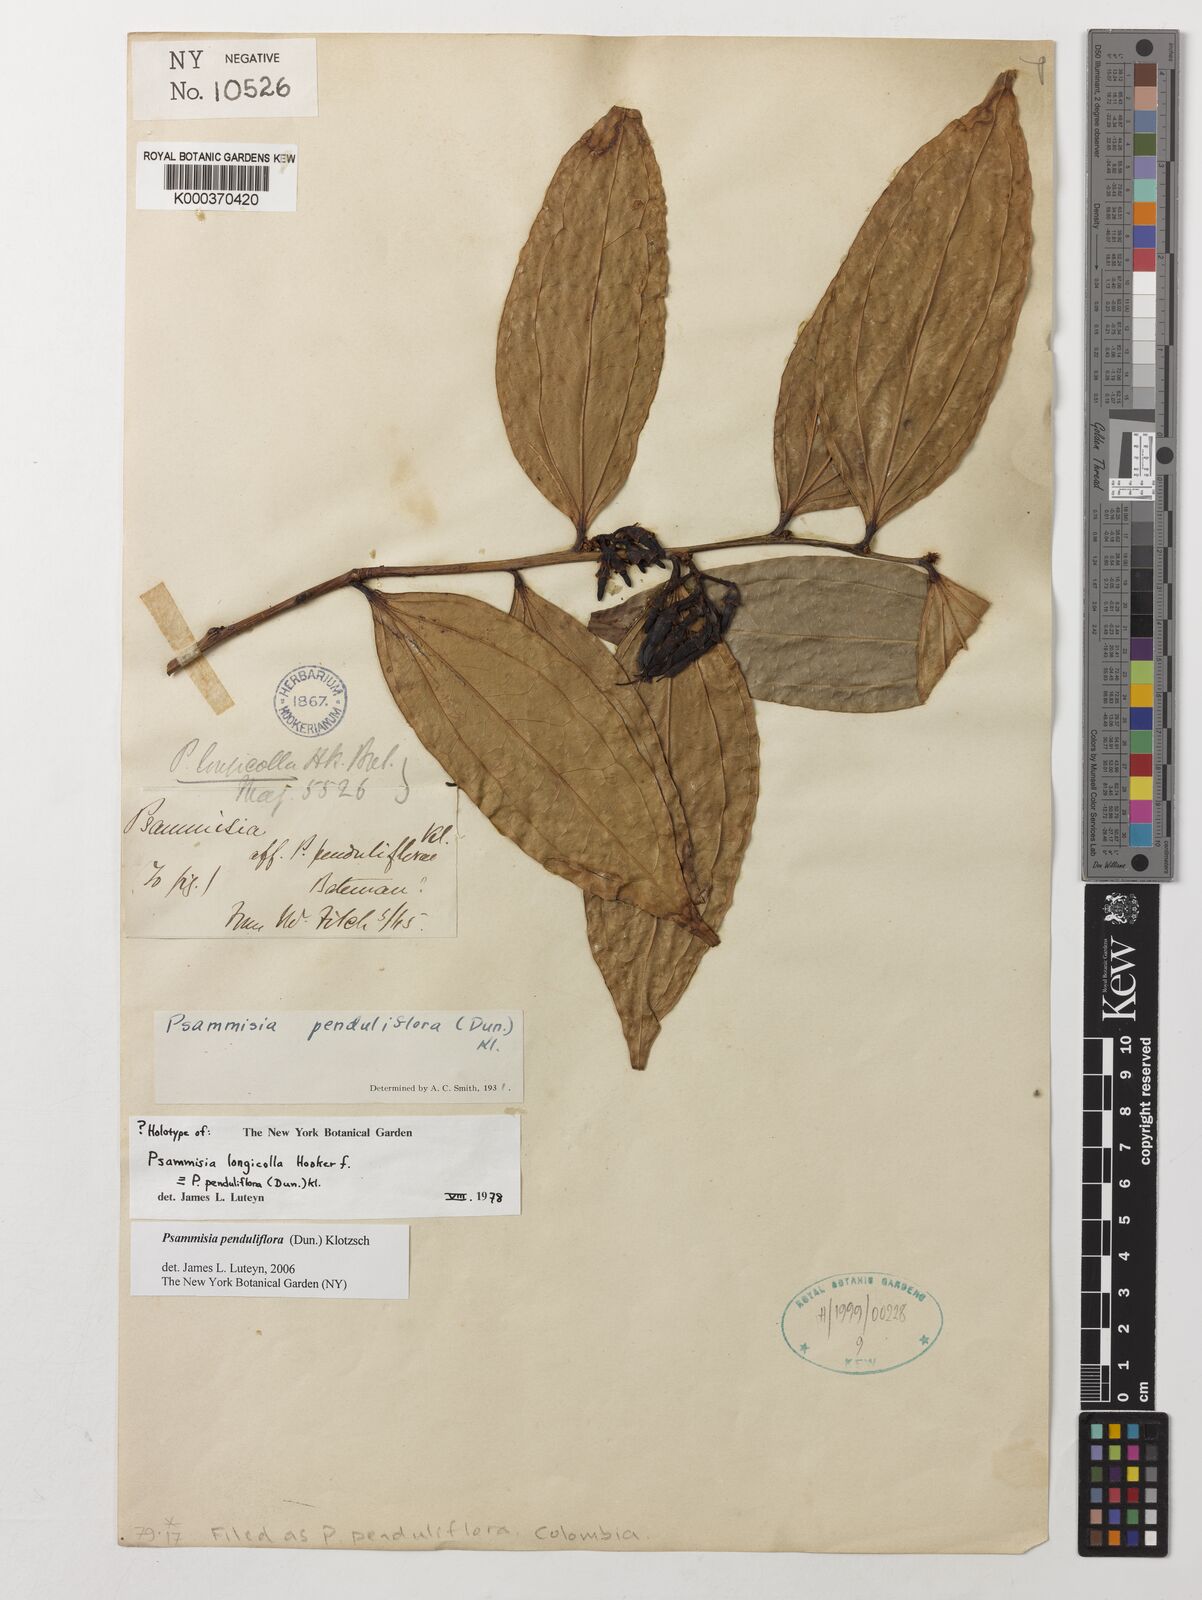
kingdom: Plantae
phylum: Tracheophyta
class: Magnoliopsida
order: Ericales
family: Ericaceae
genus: Psammisia
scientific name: Psammisia penduliflora
